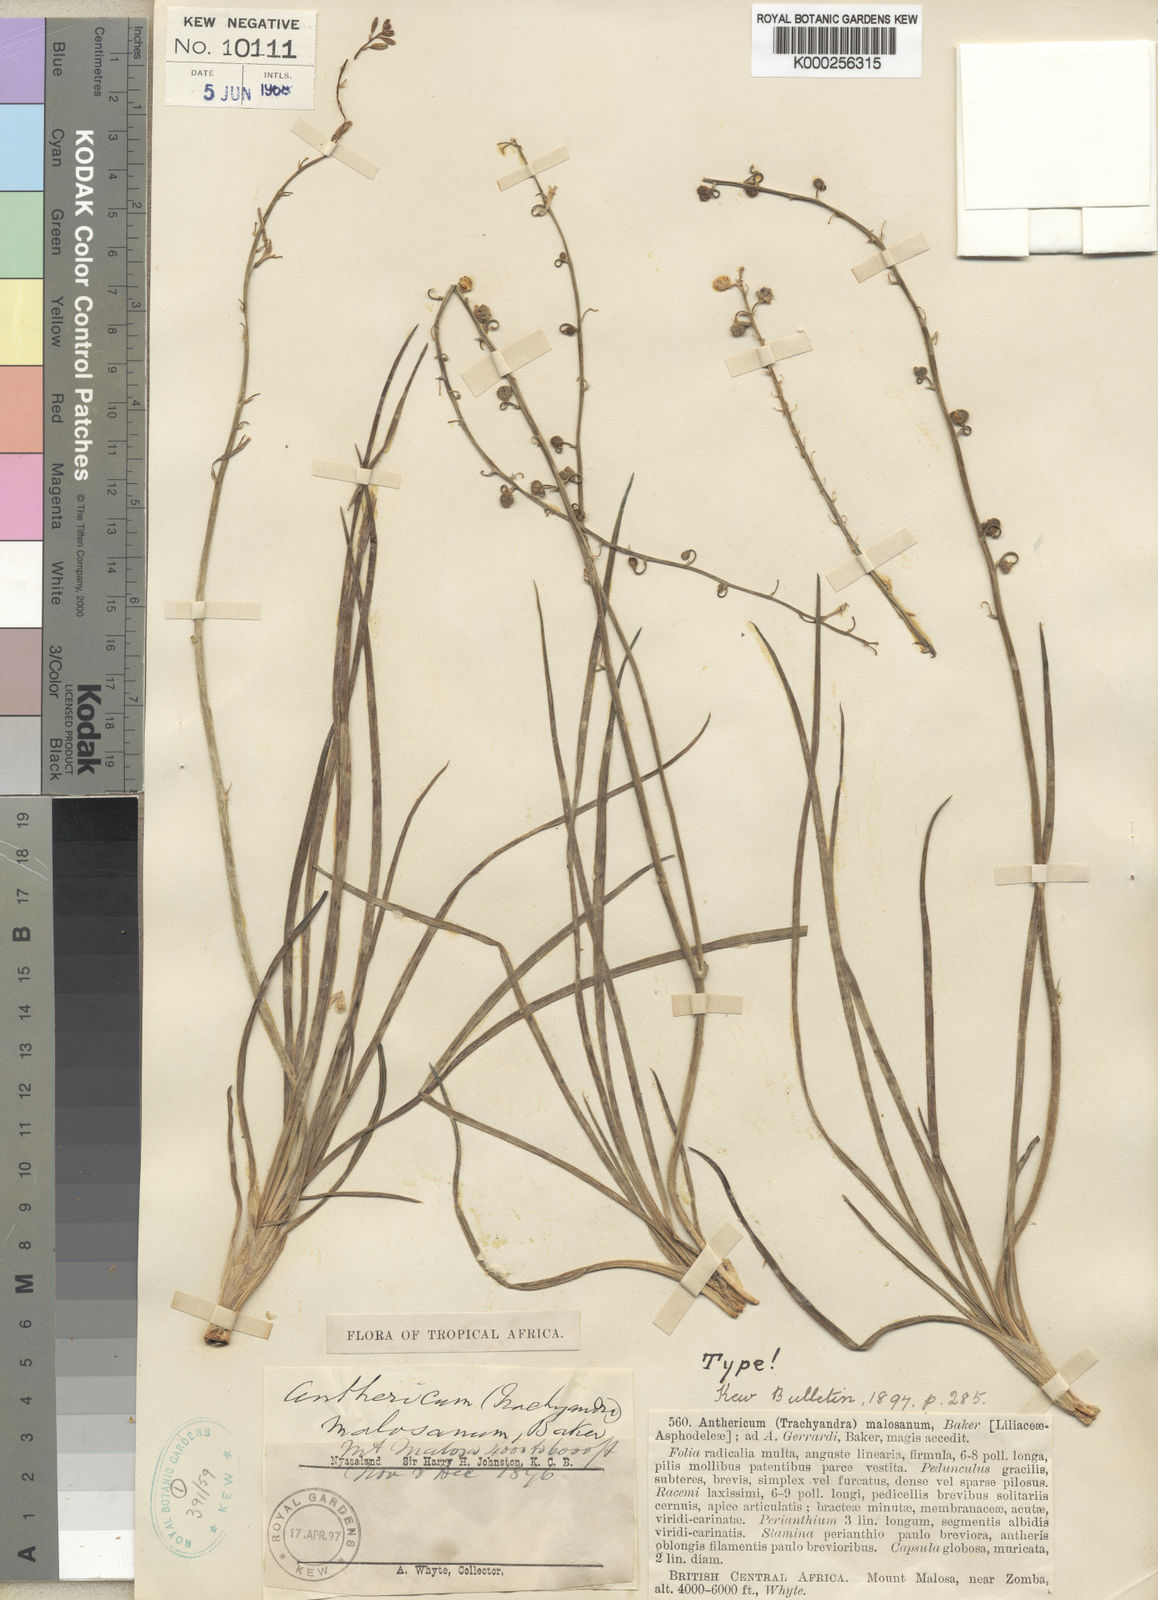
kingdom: Plantae
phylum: Tracheophyta
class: Liliopsida
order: Asparagales
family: Asphodelaceae
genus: Trachyandra
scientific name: Trachyandra malosana
